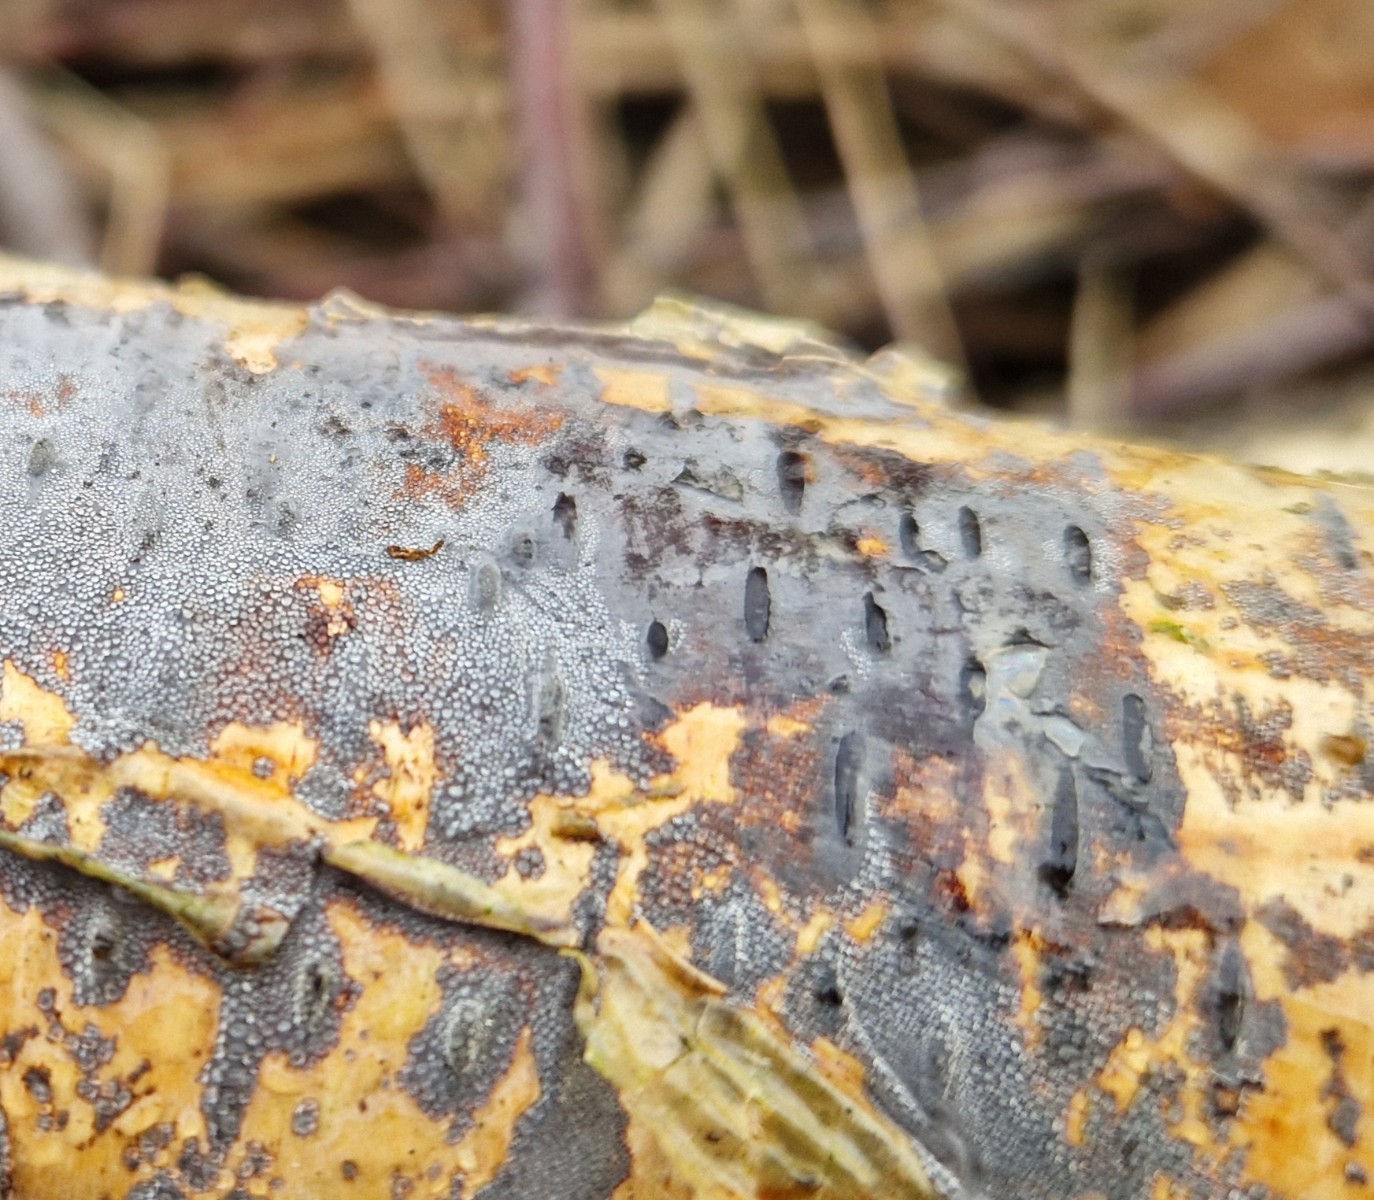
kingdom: Fungi
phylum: Basidiomycota
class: Agaricomycetes
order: Russulales
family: Peniophoraceae
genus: Peniophora
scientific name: Peniophora
